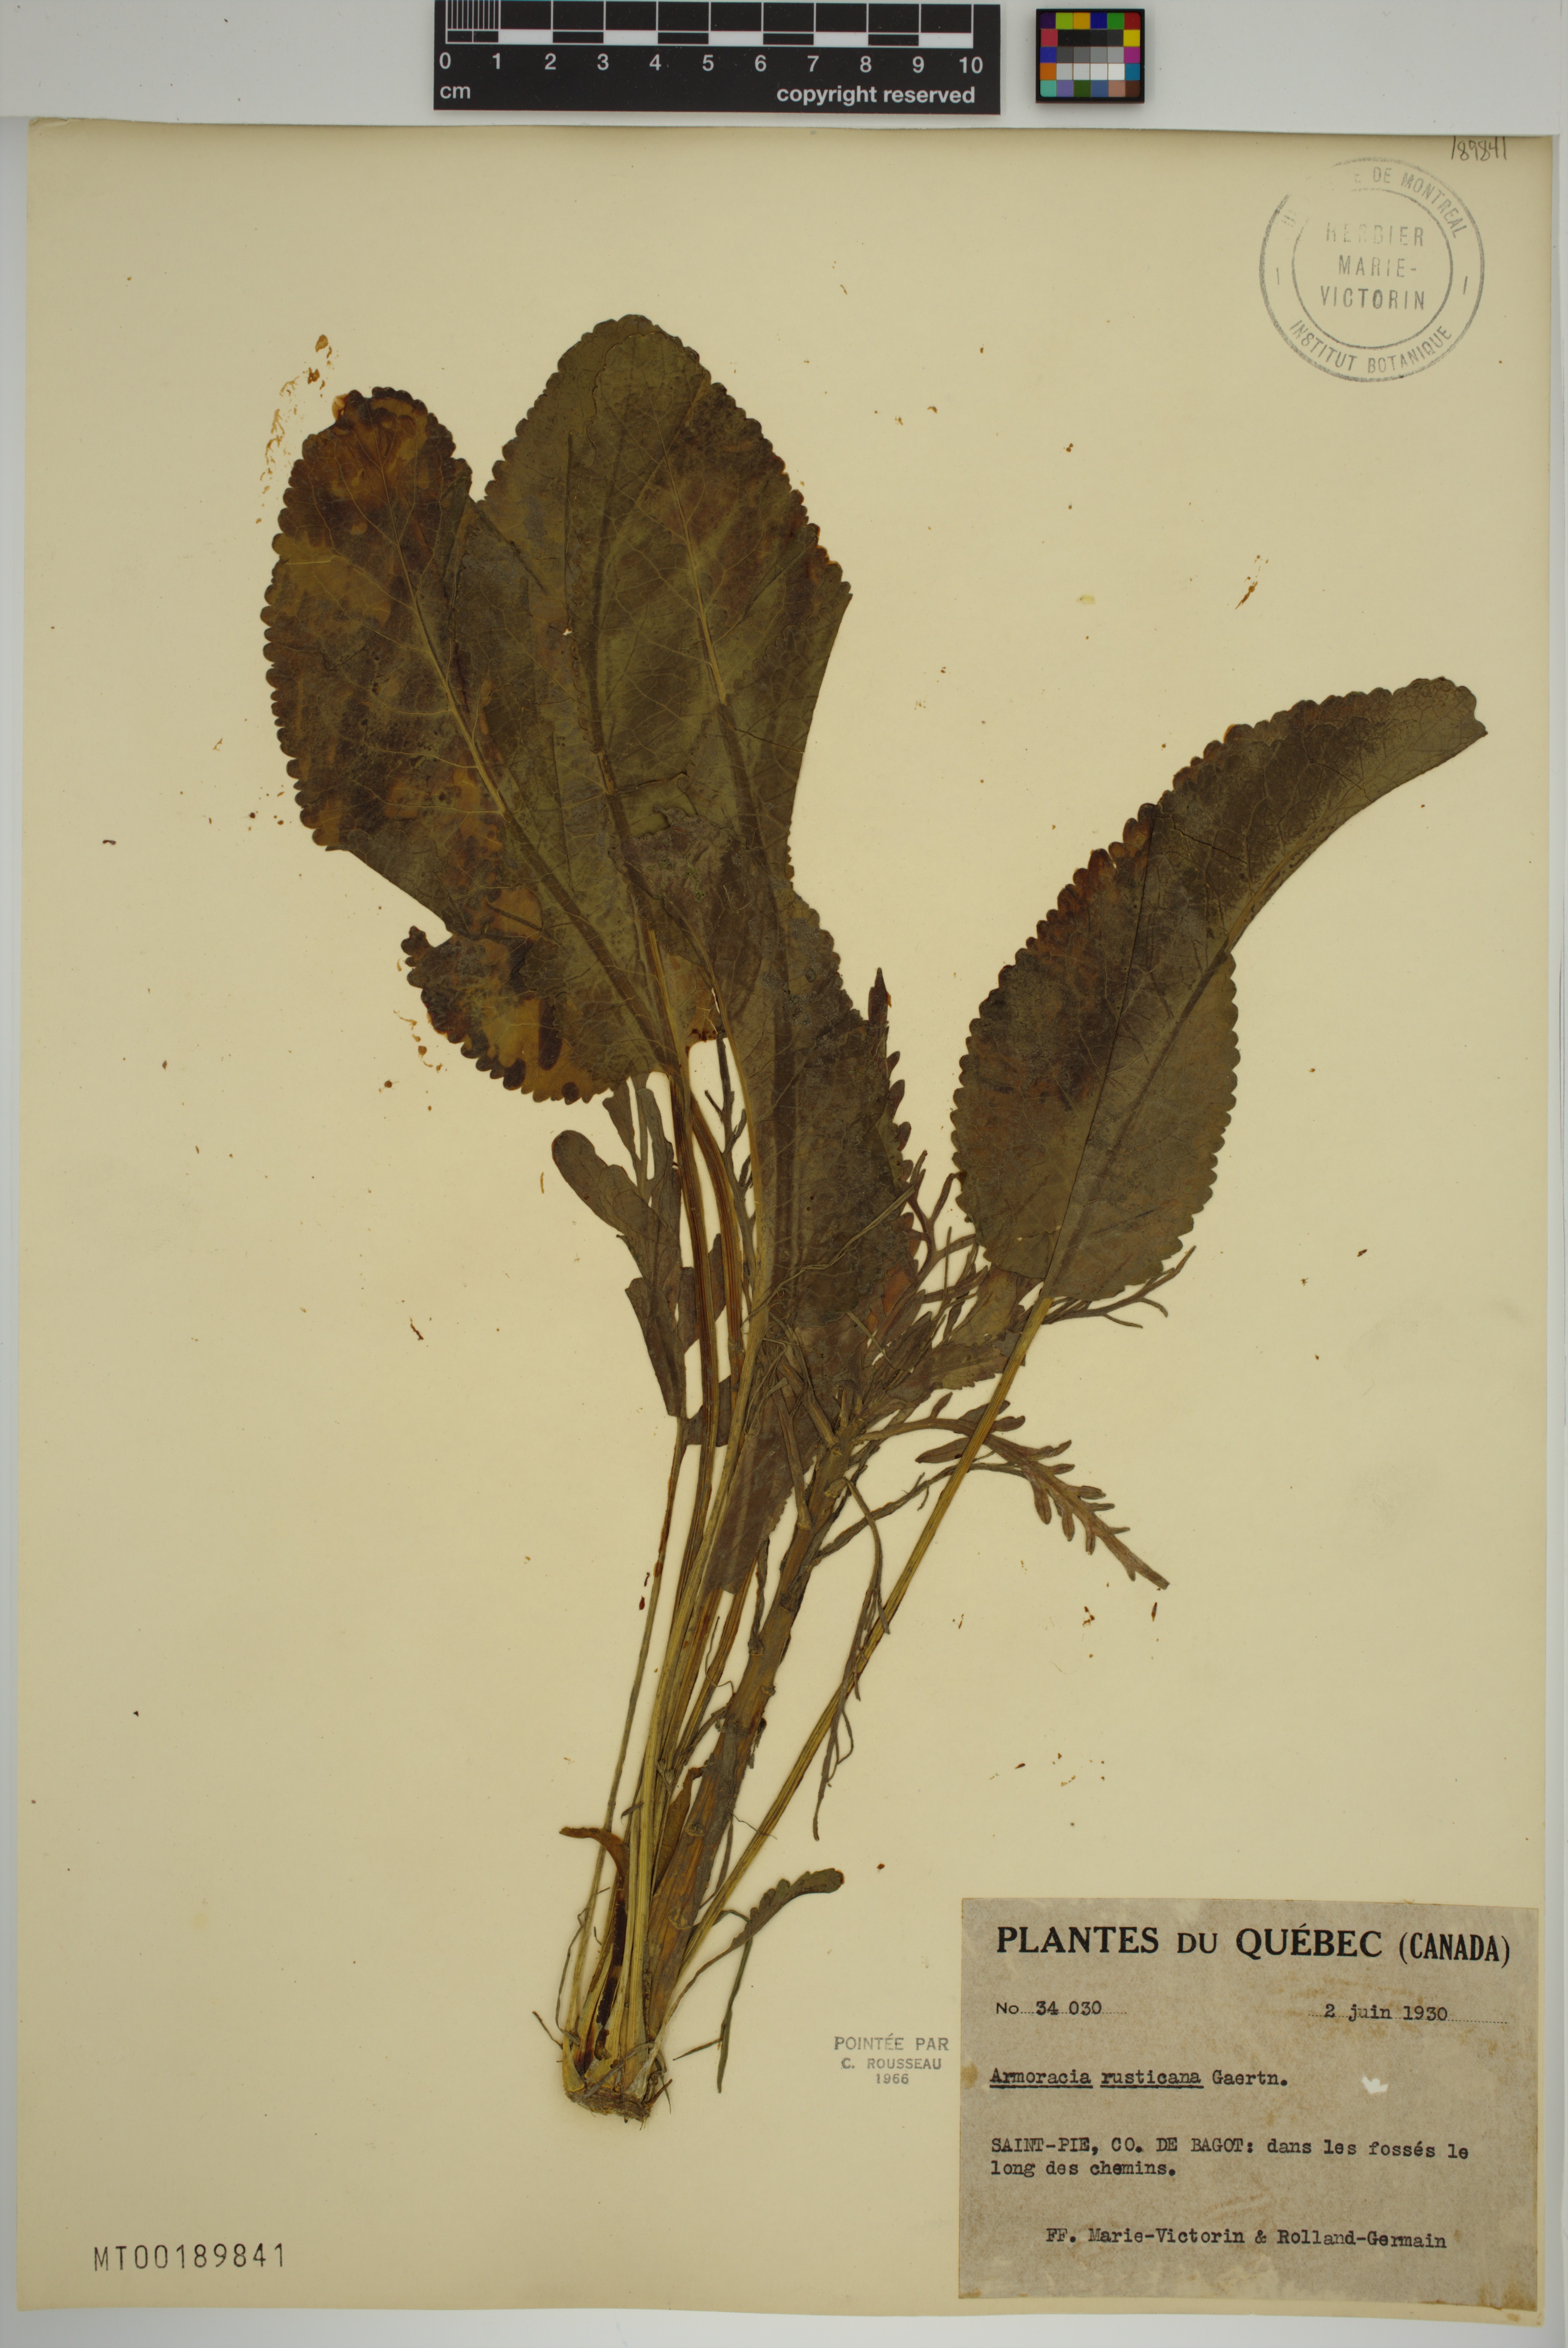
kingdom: Plantae
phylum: Tracheophyta
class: Magnoliopsida
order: Brassicales
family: Brassicaceae
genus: Armoracia
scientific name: Armoracia rusticana
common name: Horseradish
